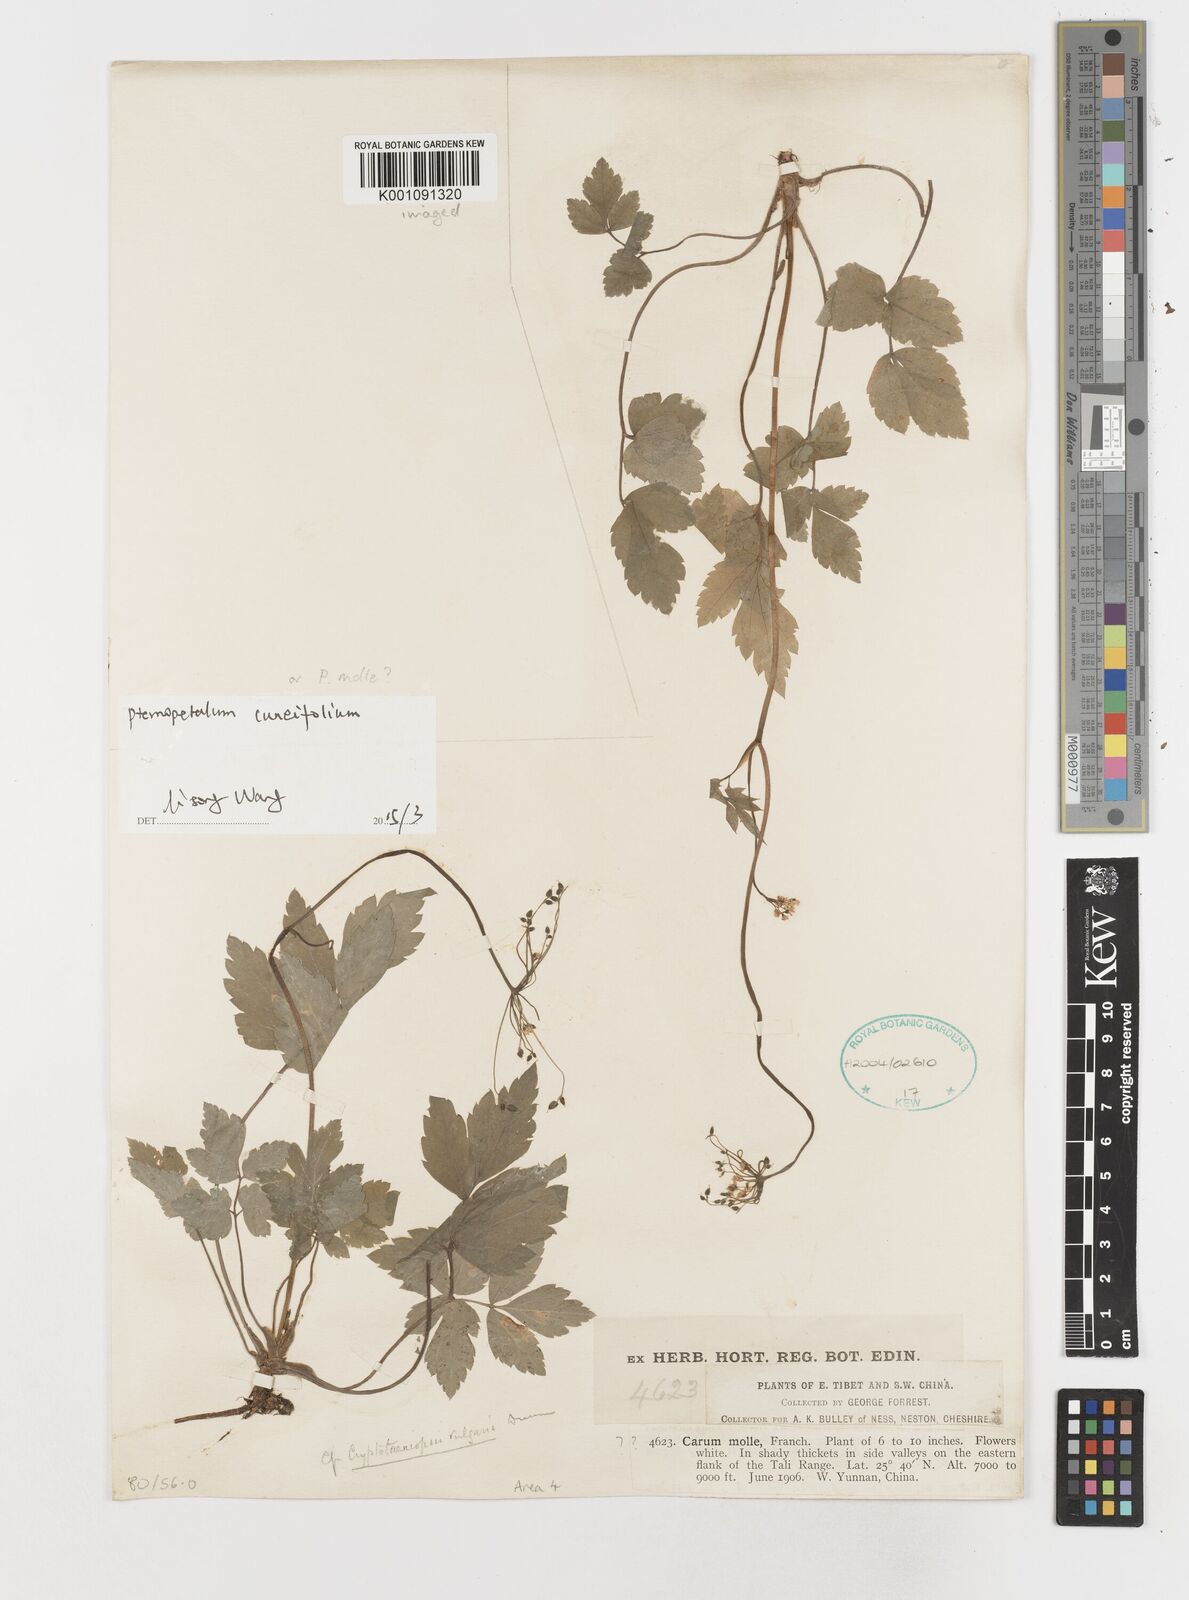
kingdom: Plantae
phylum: Tracheophyta
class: Magnoliopsida
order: Apiales
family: Apiaceae
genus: Pternopetalum
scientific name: Pternopetalum cuneifolium
